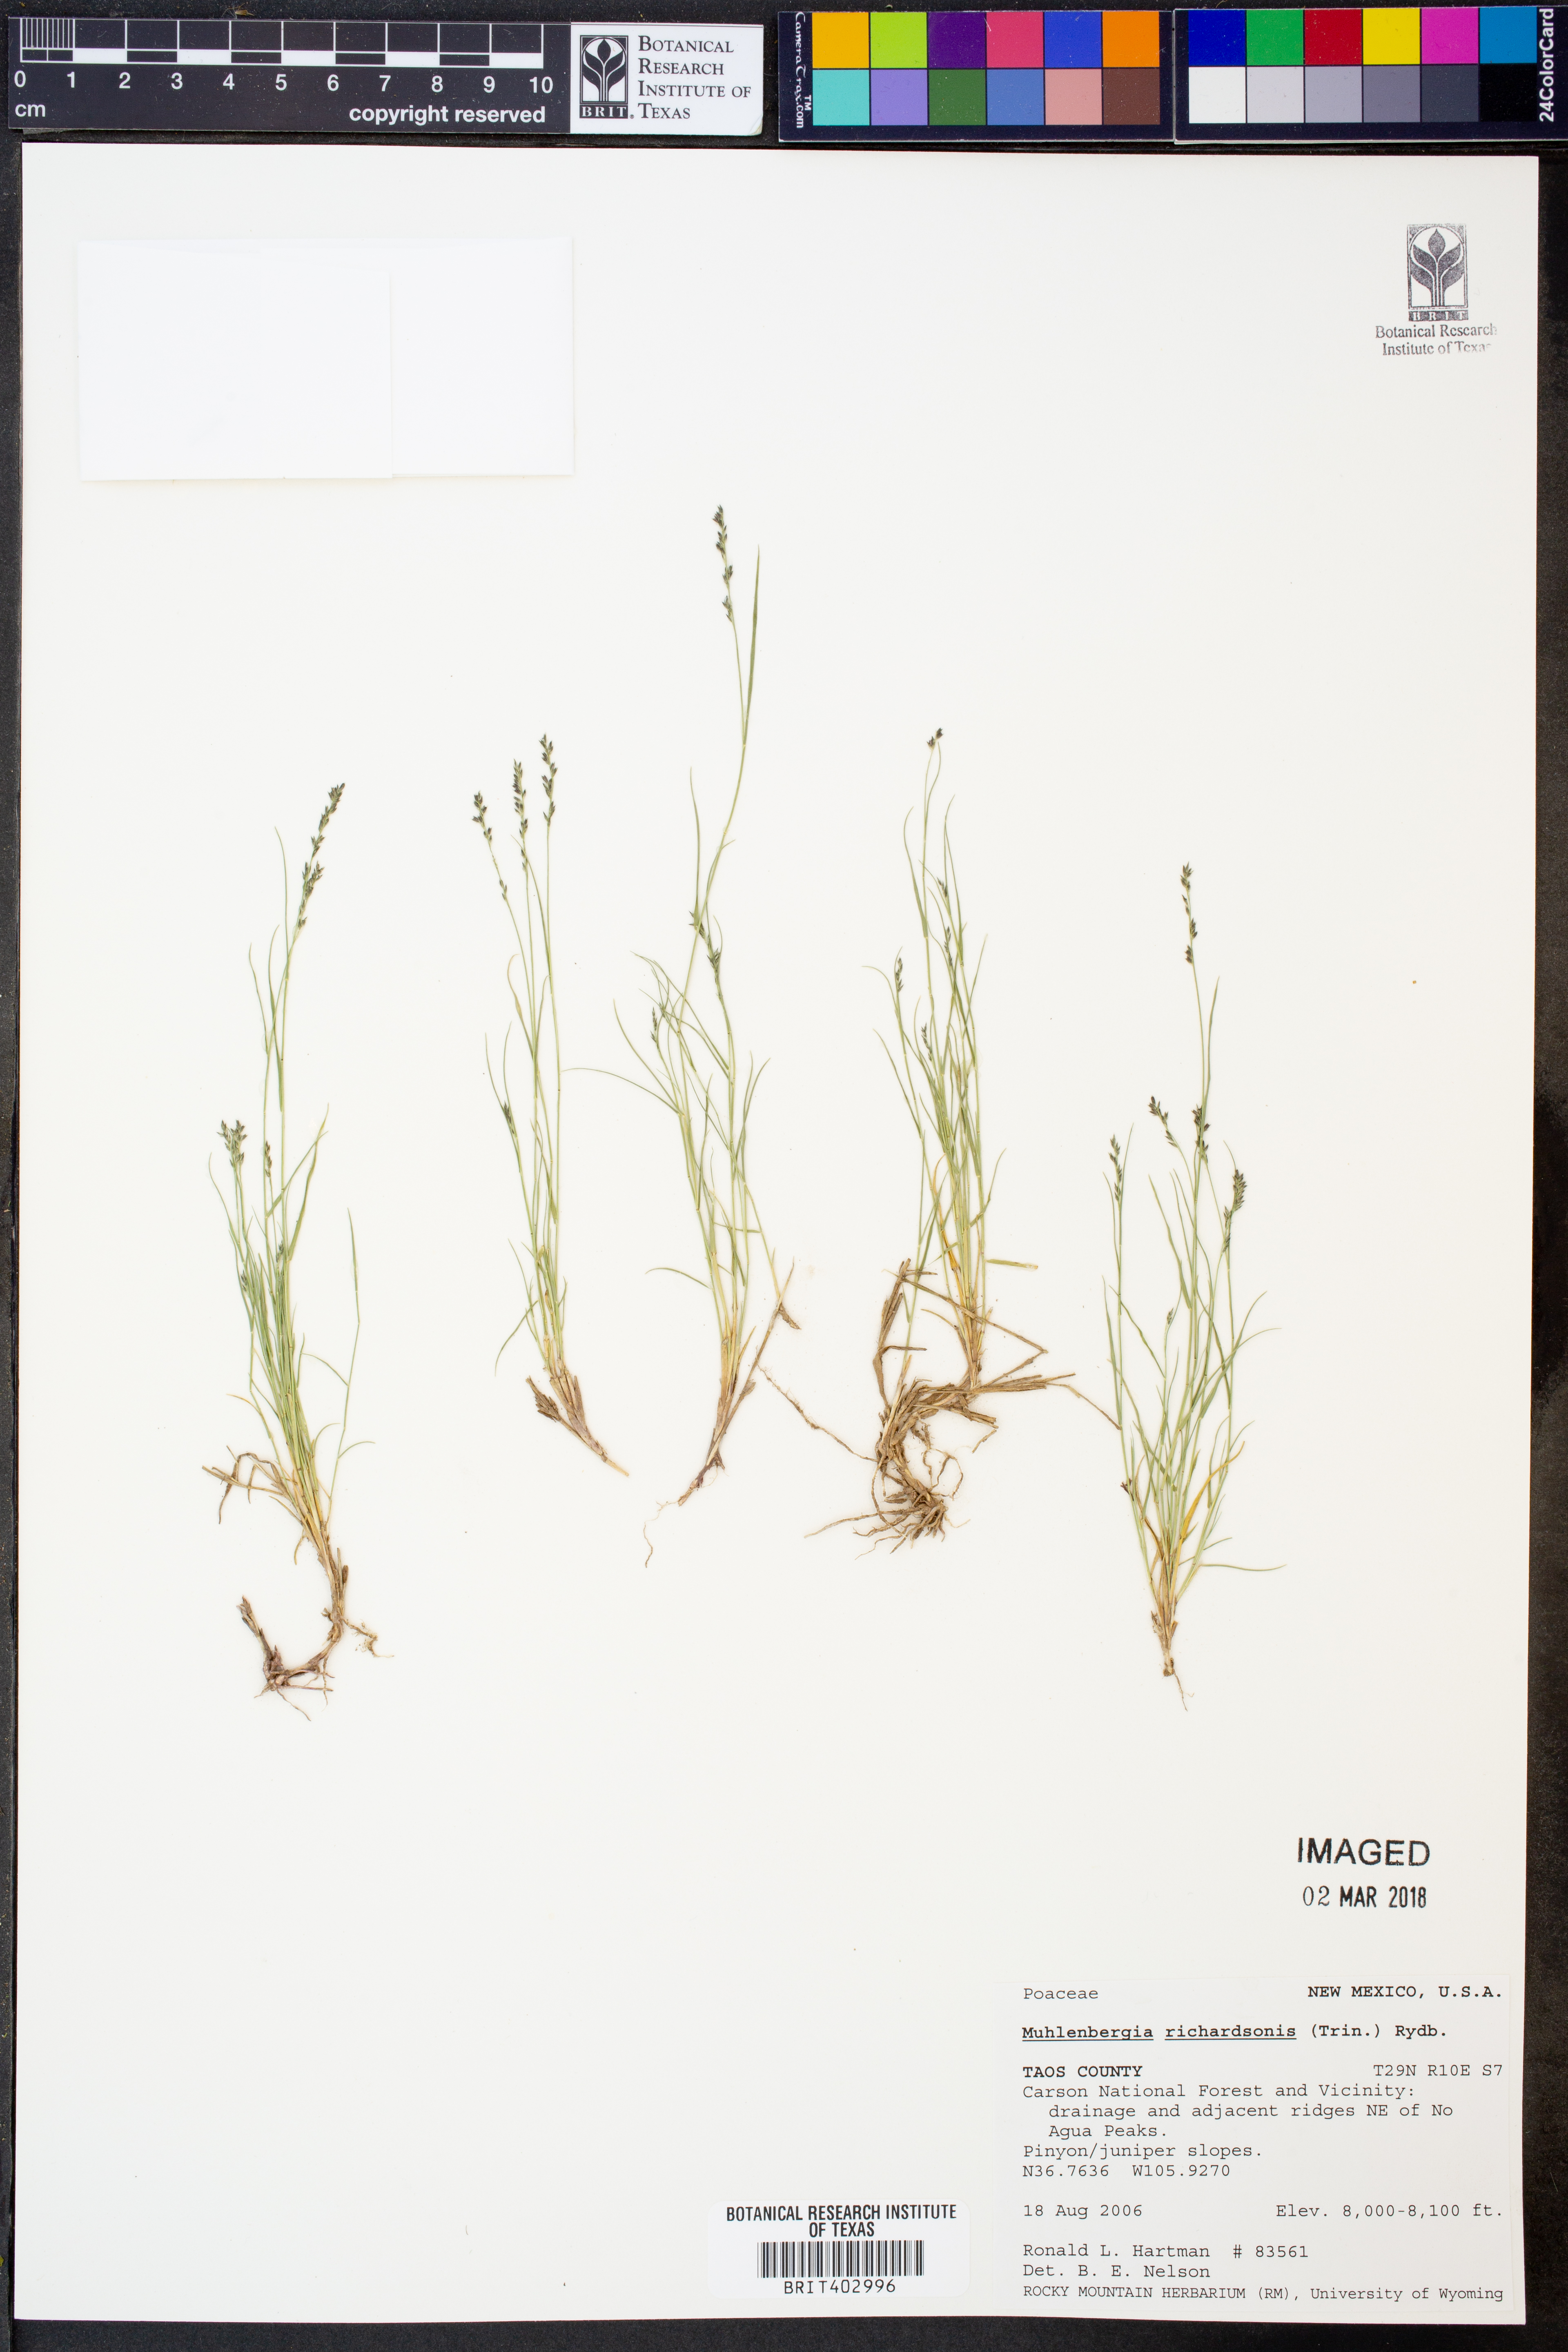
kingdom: Plantae
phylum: Tracheophyta
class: Liliopsida
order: Poales
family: Poaceae
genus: Muhlenbergia
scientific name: Muhlenbergia richardsonis
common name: Mat muhly
